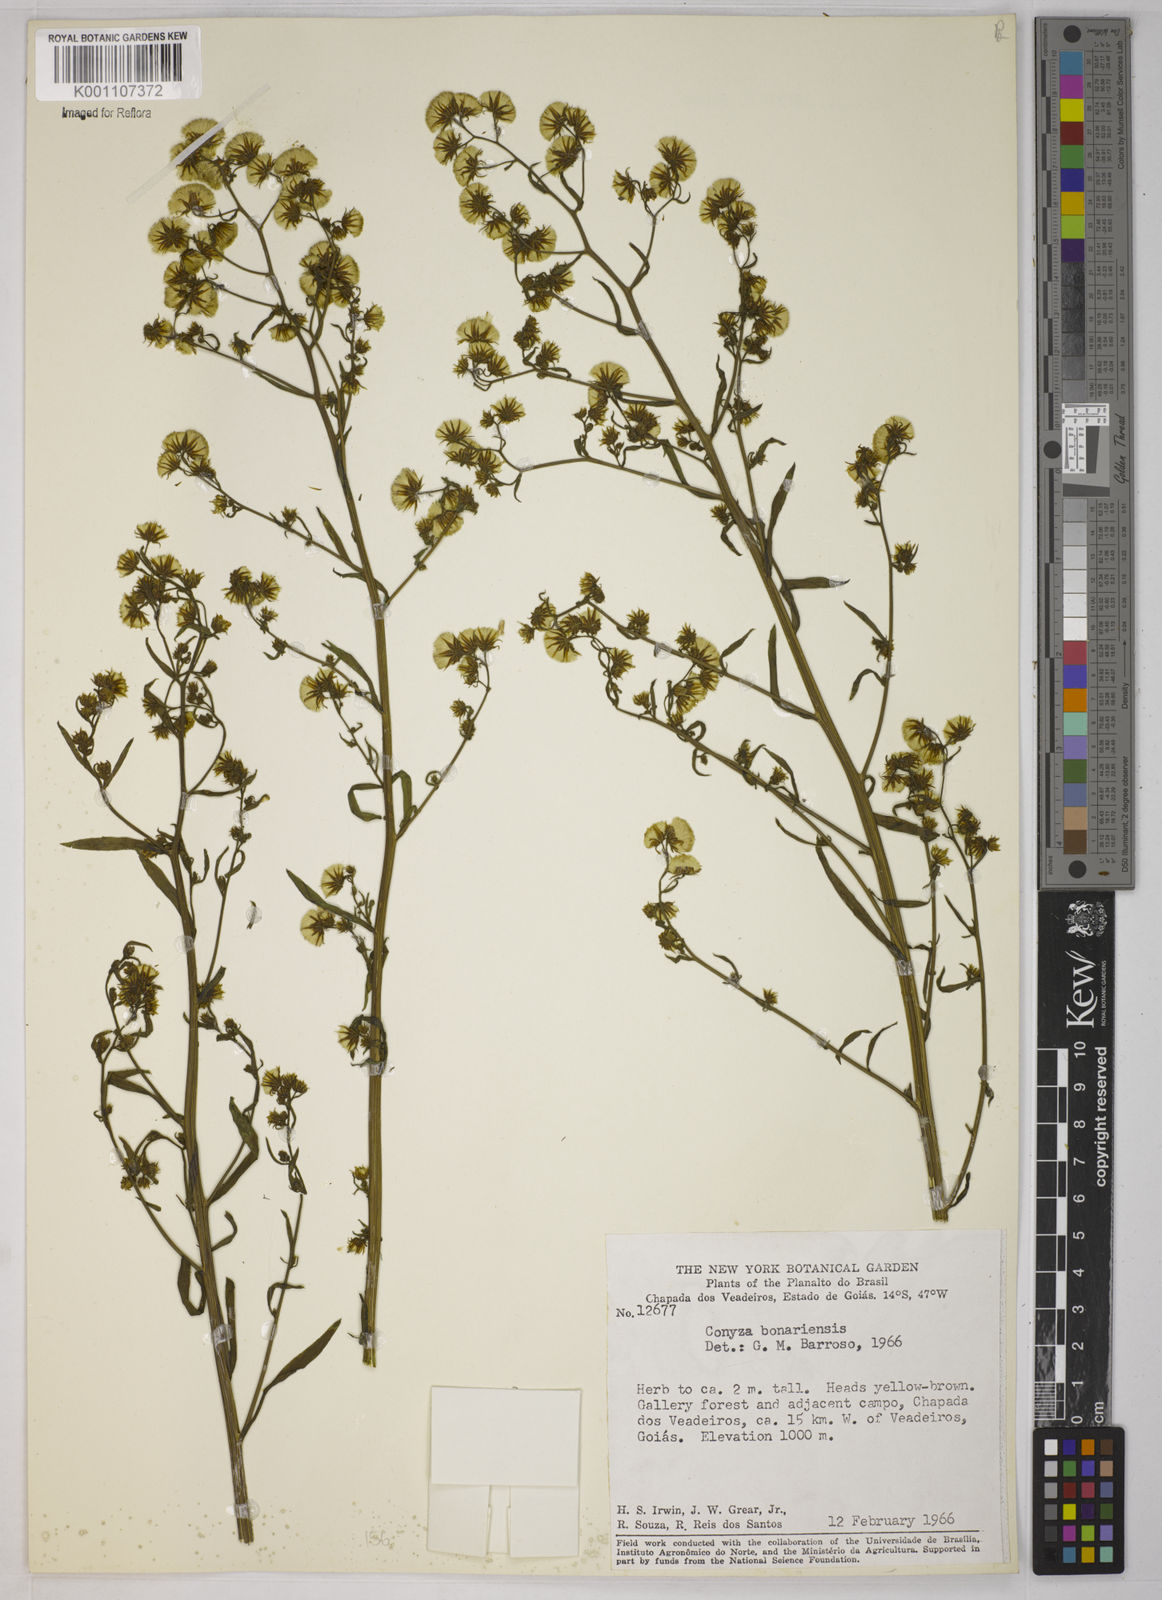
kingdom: Plantae
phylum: Tracheophyta
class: Magnoliopsida
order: Asterales
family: Asteraceae
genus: Erigeron
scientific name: Erigeron sumatrensis
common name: Daisy
